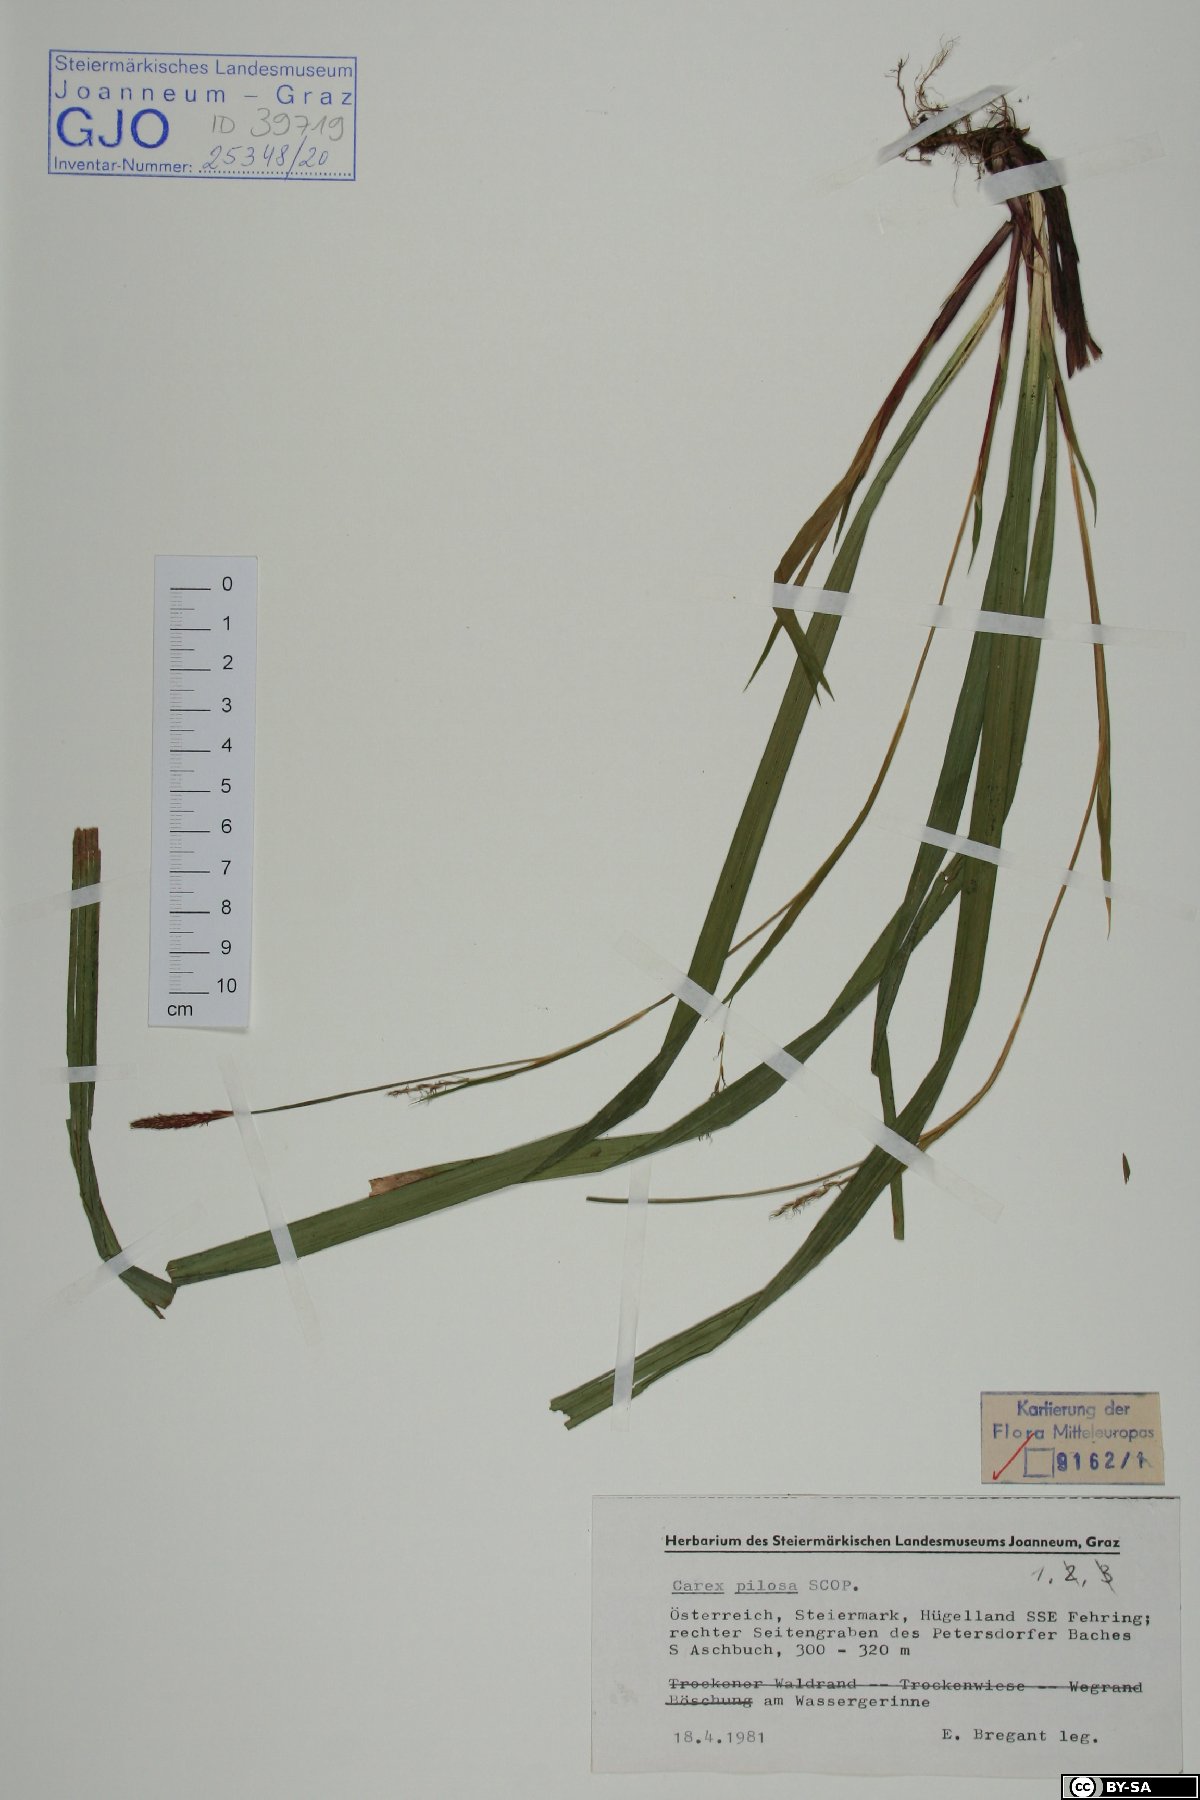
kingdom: Plantae
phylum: Tracheophyta
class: Liliopsida
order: Poales
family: Cyperaceae
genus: Carex
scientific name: Carex pilosa
